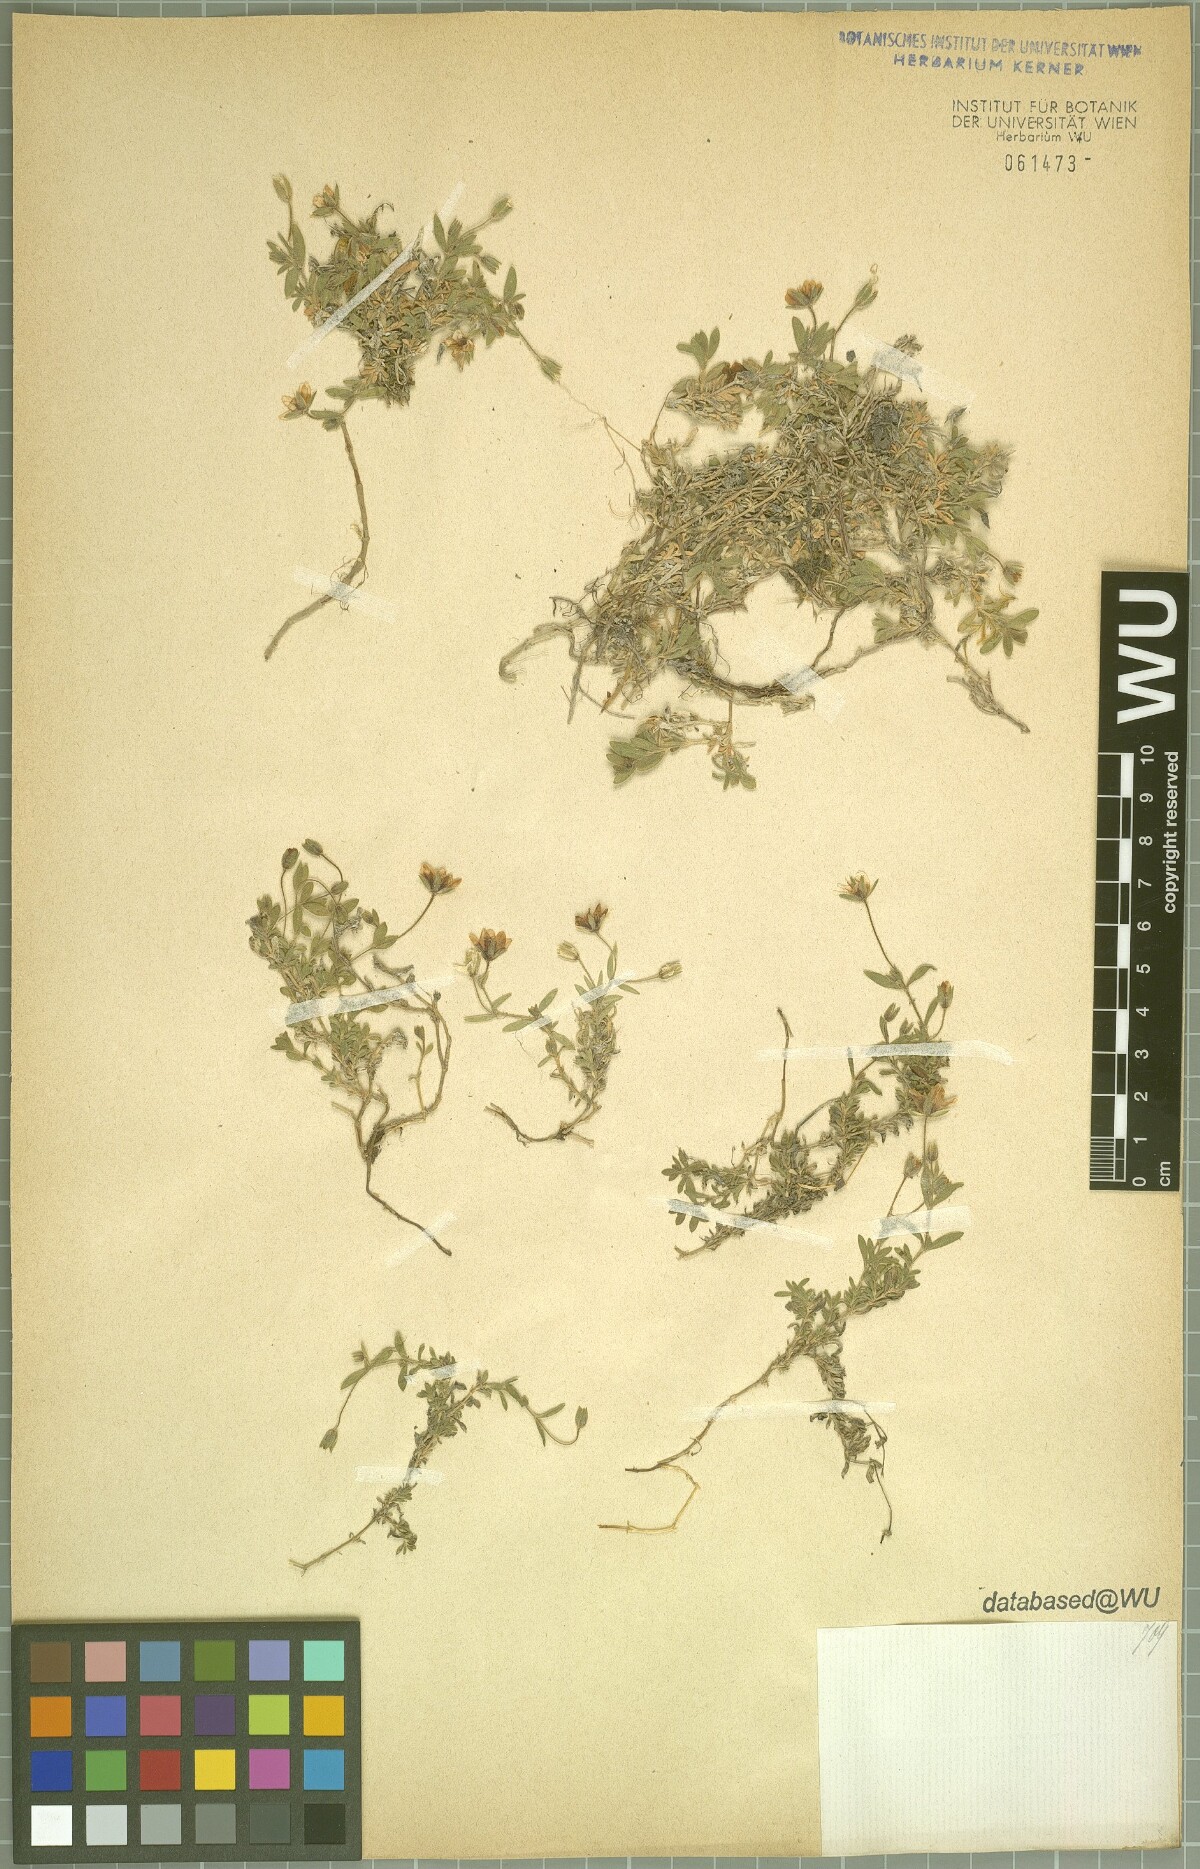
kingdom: Plantae
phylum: Tracheophyta
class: Magnoliopsida
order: Caryophyllales
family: Caryophyllaceae
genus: Arenaria
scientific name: Arenaria huteri
